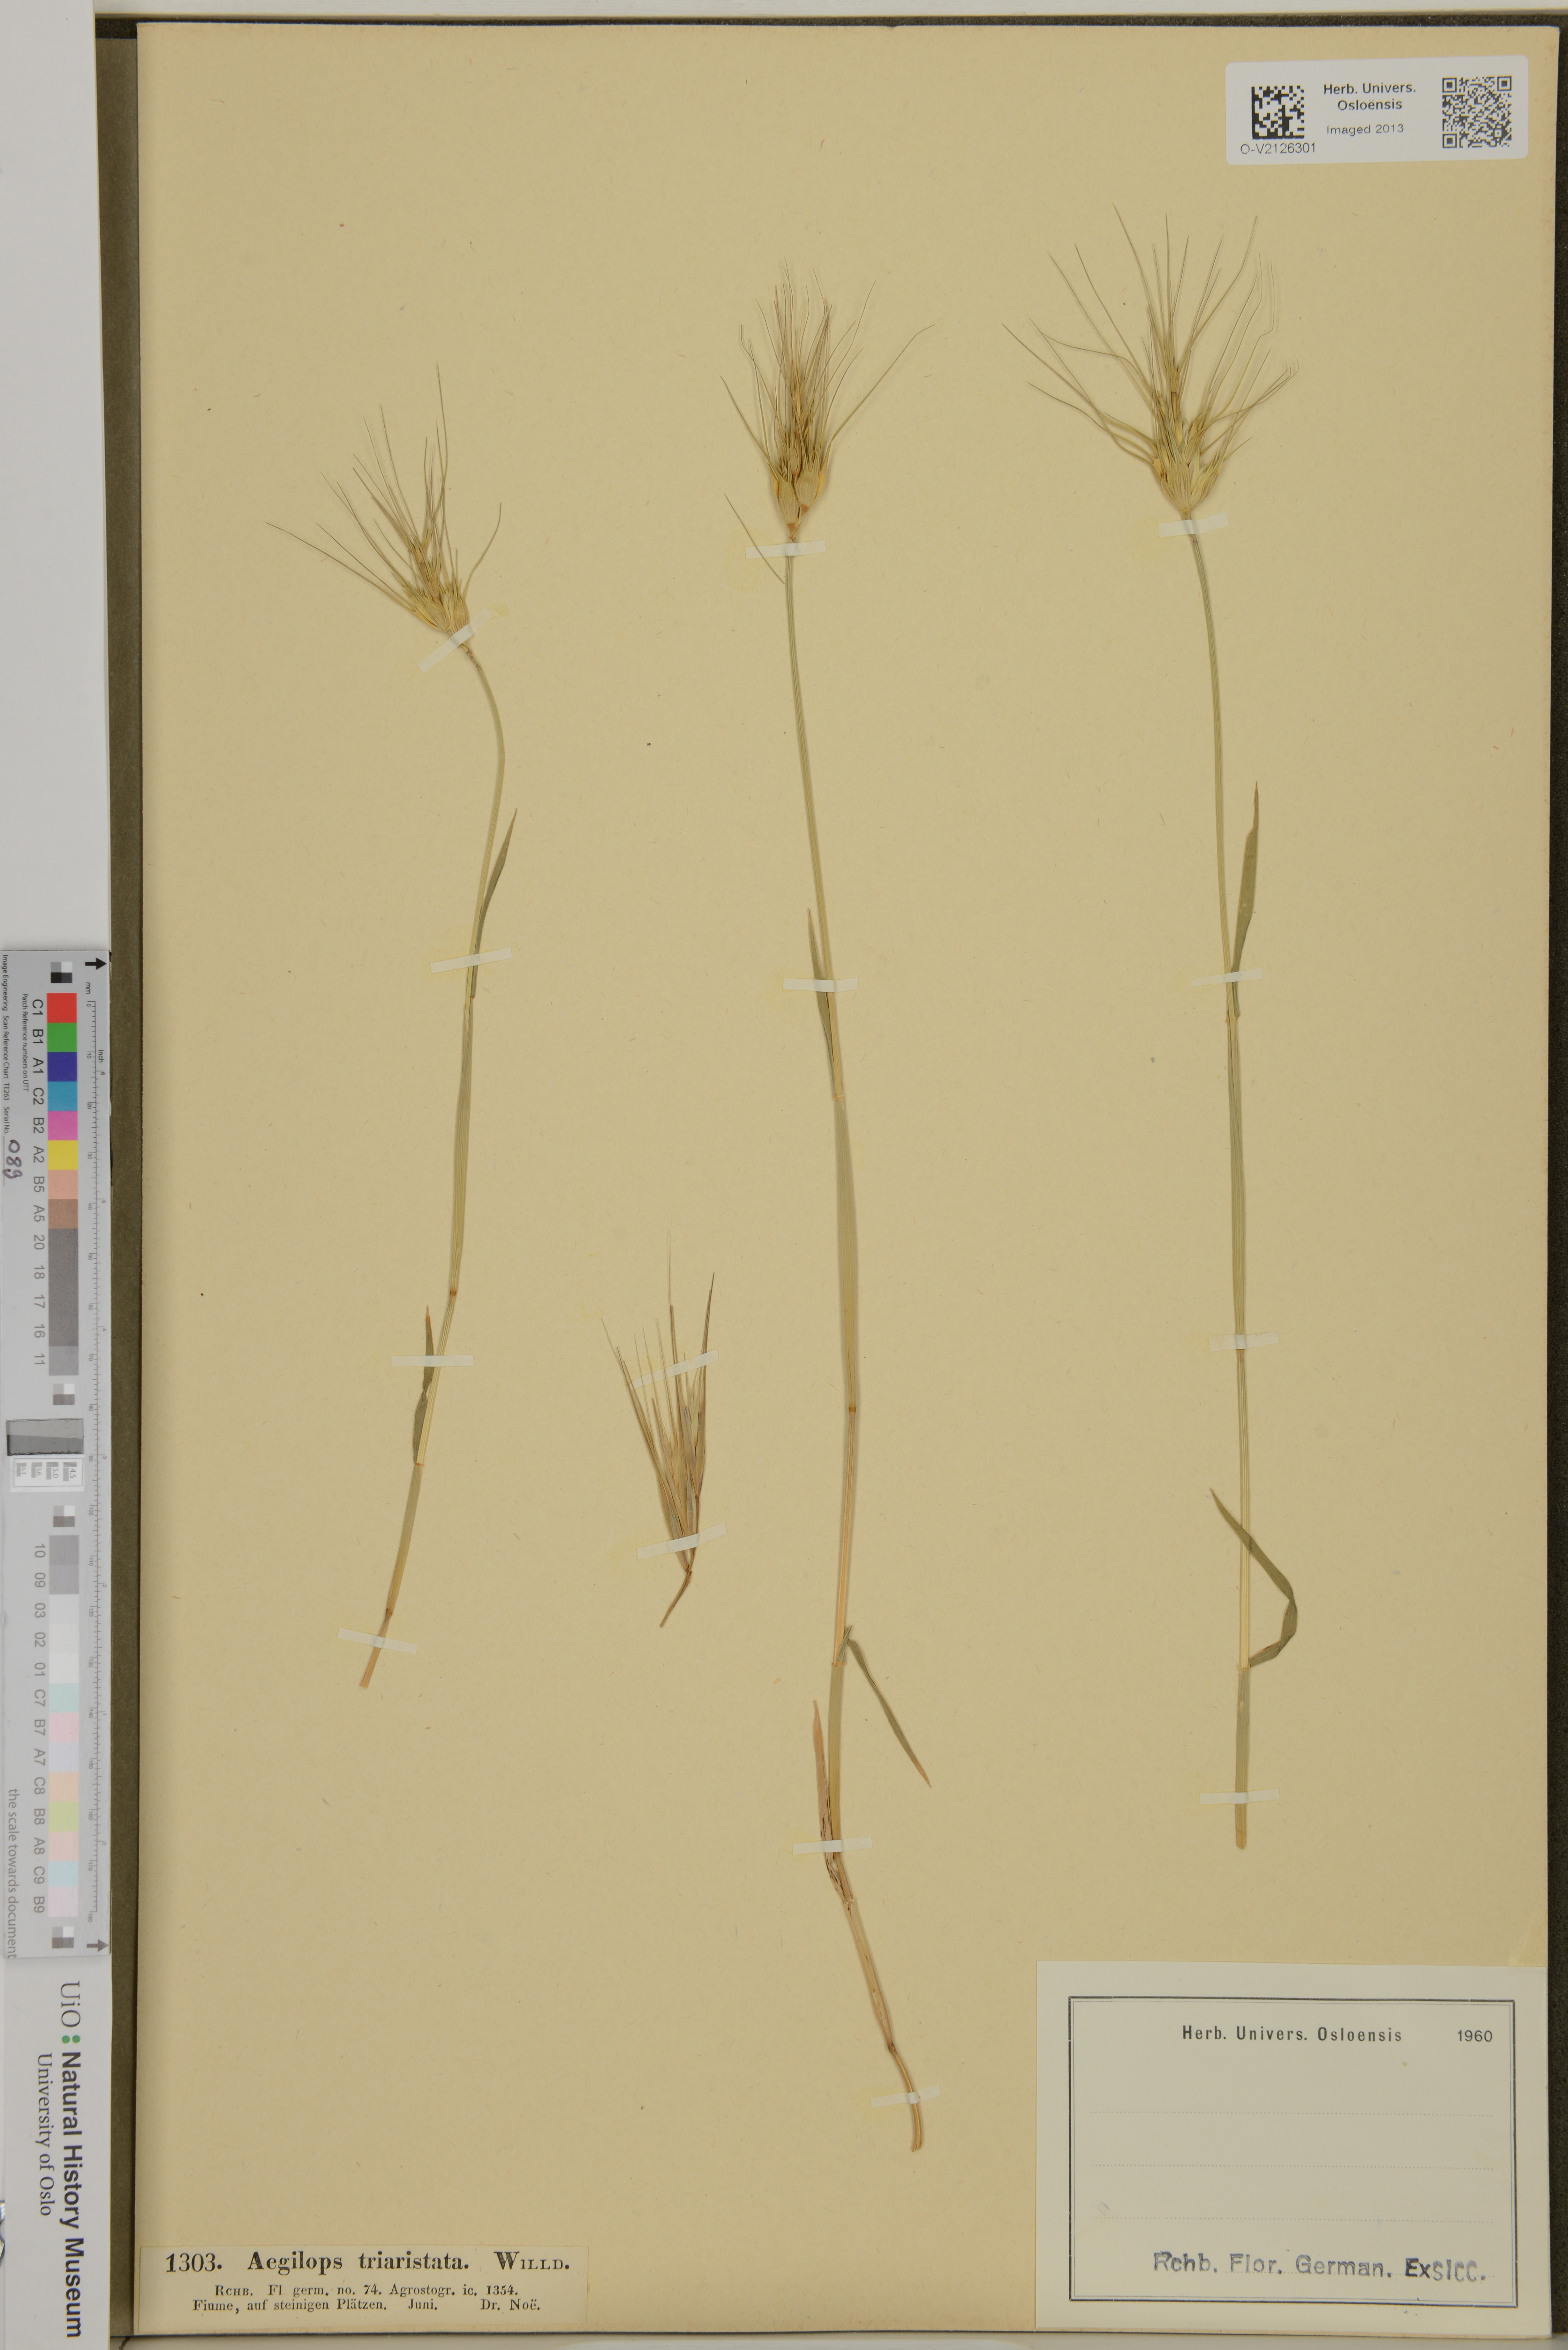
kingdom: Plantae
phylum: Tracheophyta
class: Liliopsida
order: Poales
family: Poaceae
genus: Aegilops
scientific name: Aegilops neglecta
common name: Three-awn goat grass
